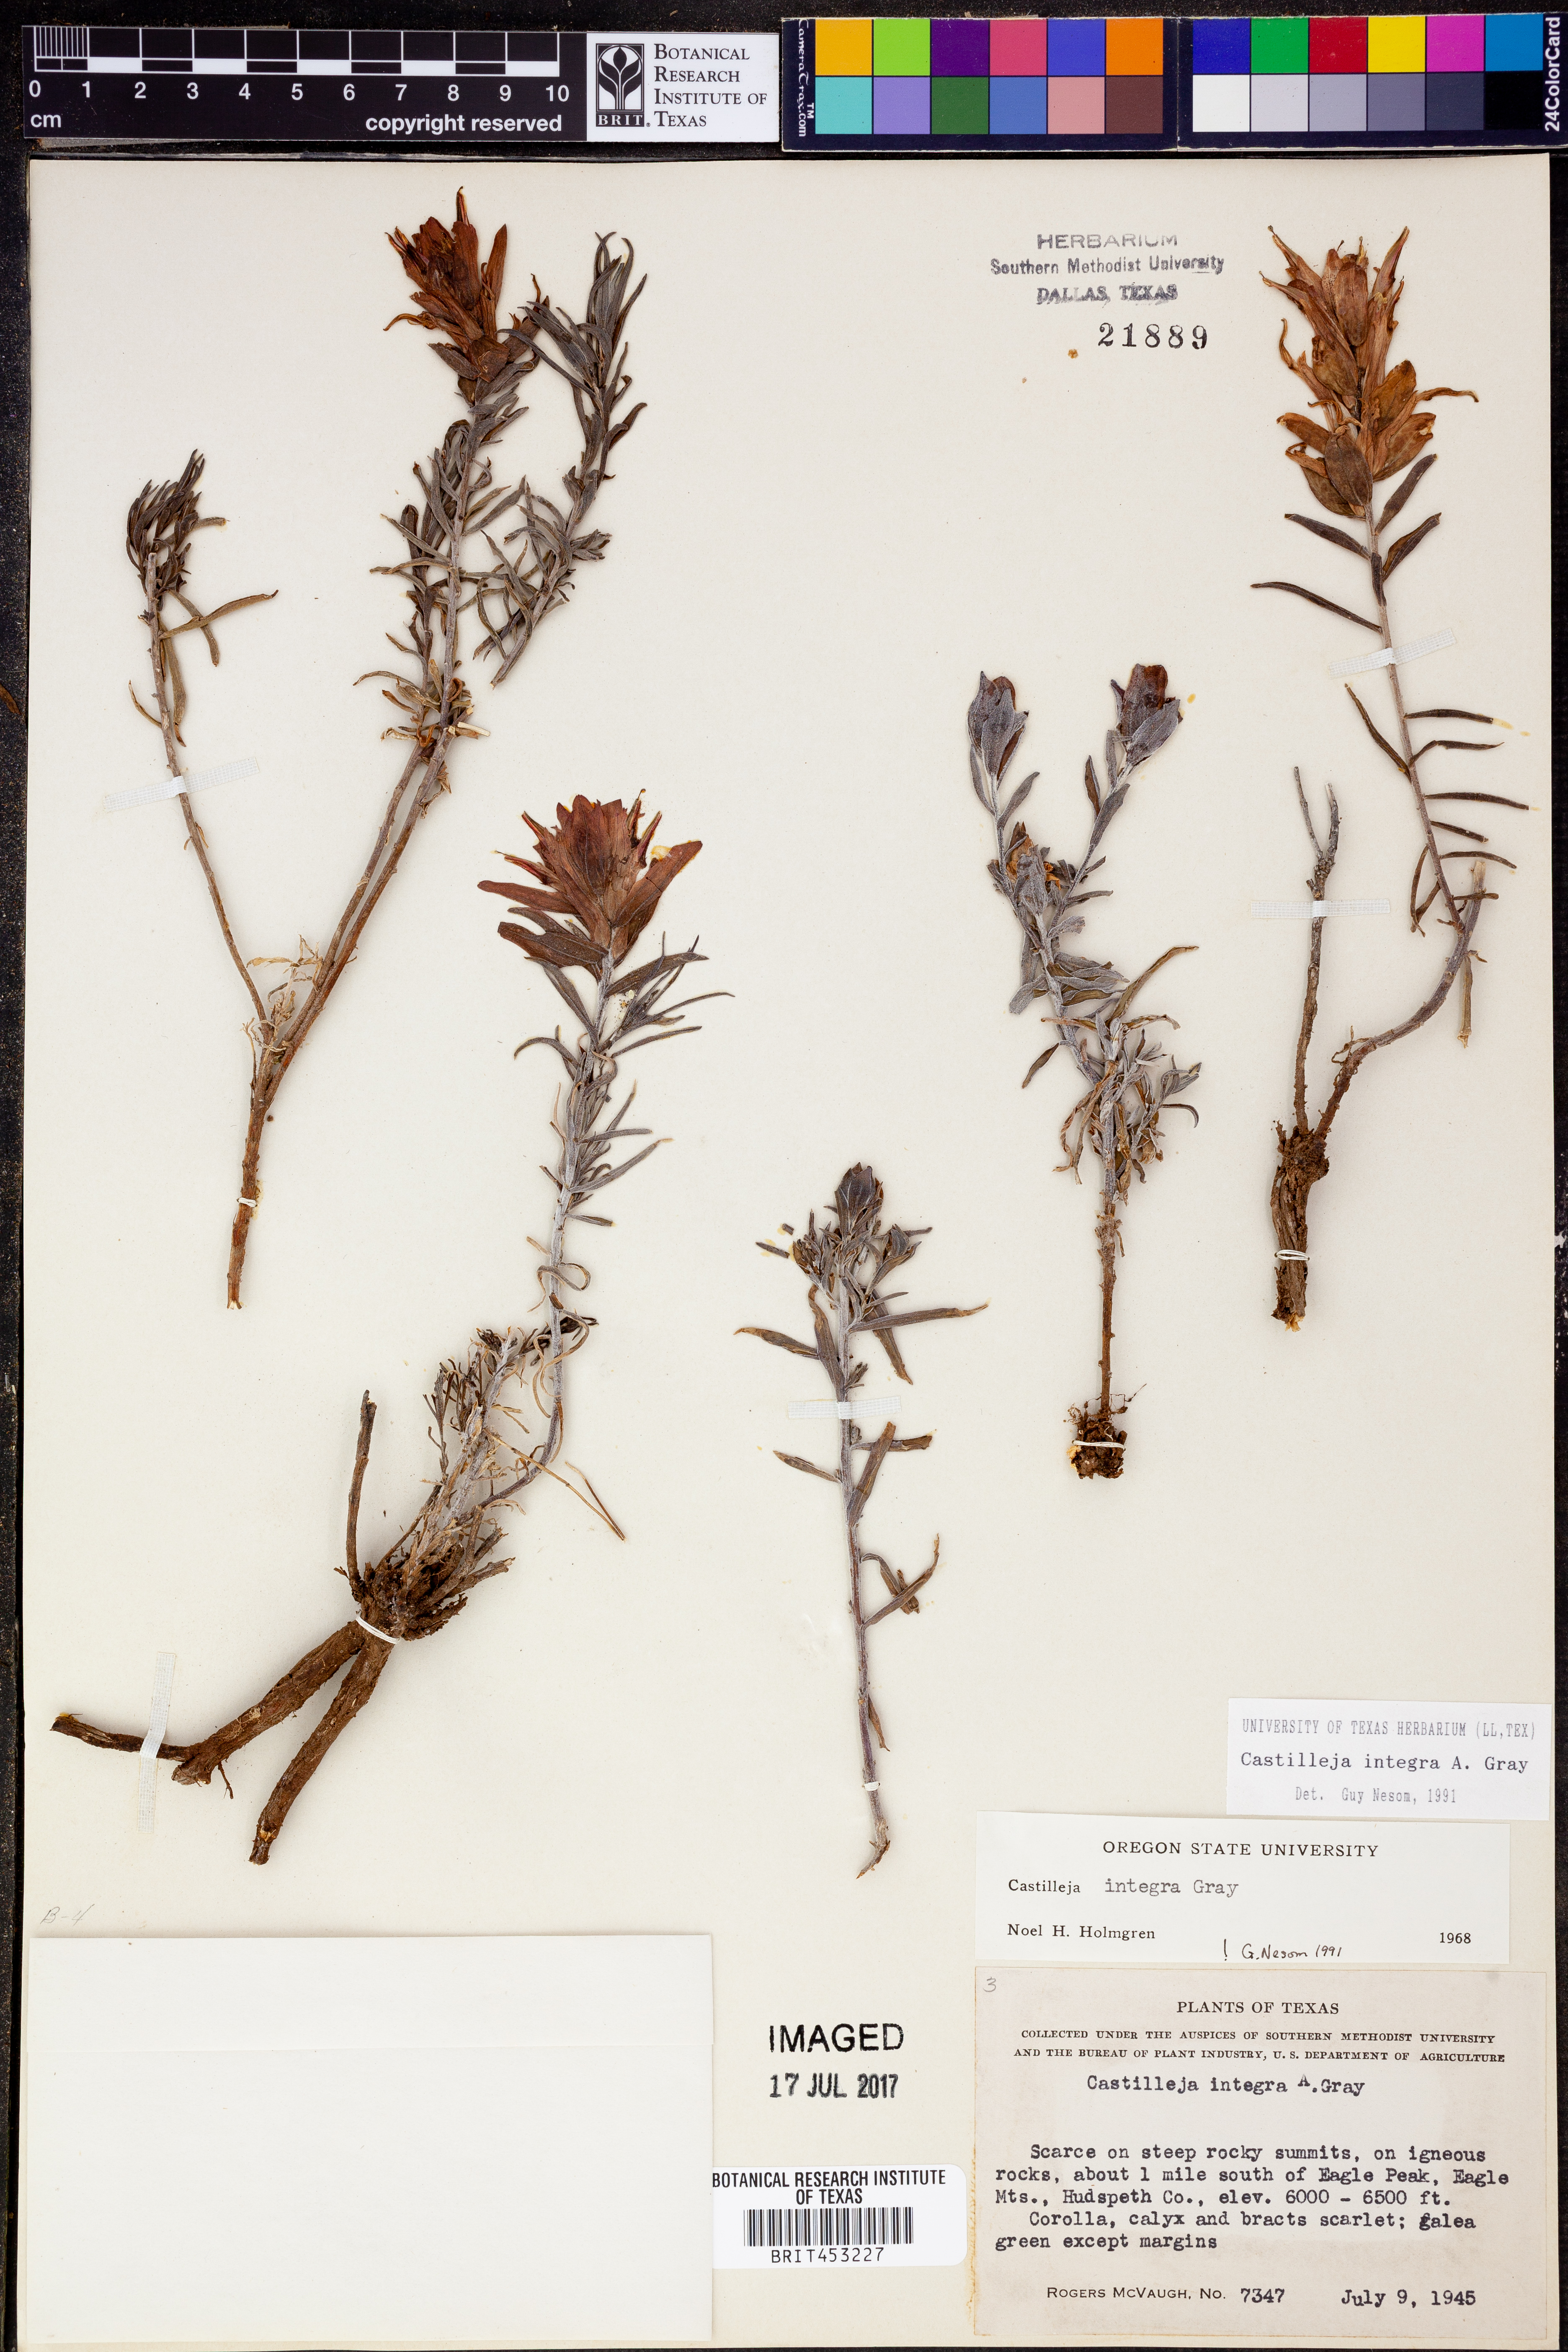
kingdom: Plantae
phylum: Tracheophyta
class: Magnoliopsida
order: Lamiales
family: Orobanchaceae
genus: Castilleja
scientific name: Castilleja integra
